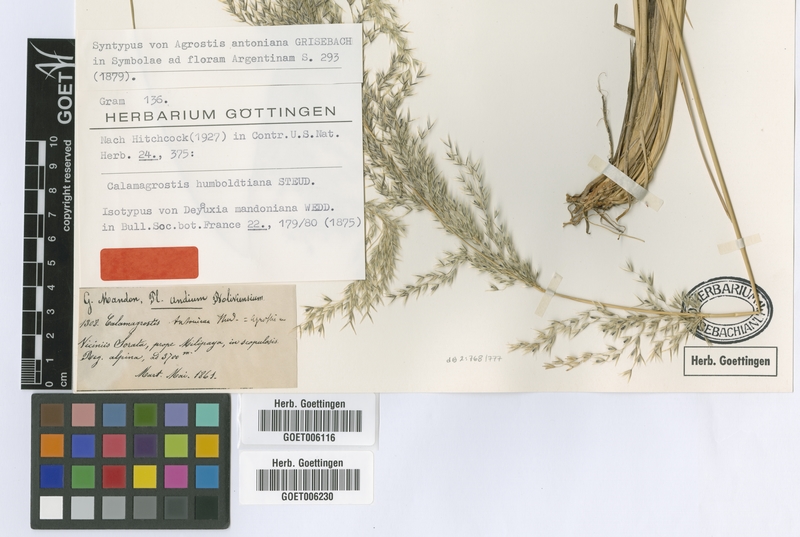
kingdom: Plantae
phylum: Tracheophyta
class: Liliopsida
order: Poales
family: Poaceae
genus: Cinnagrostis
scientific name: Cinnagrostis recta
